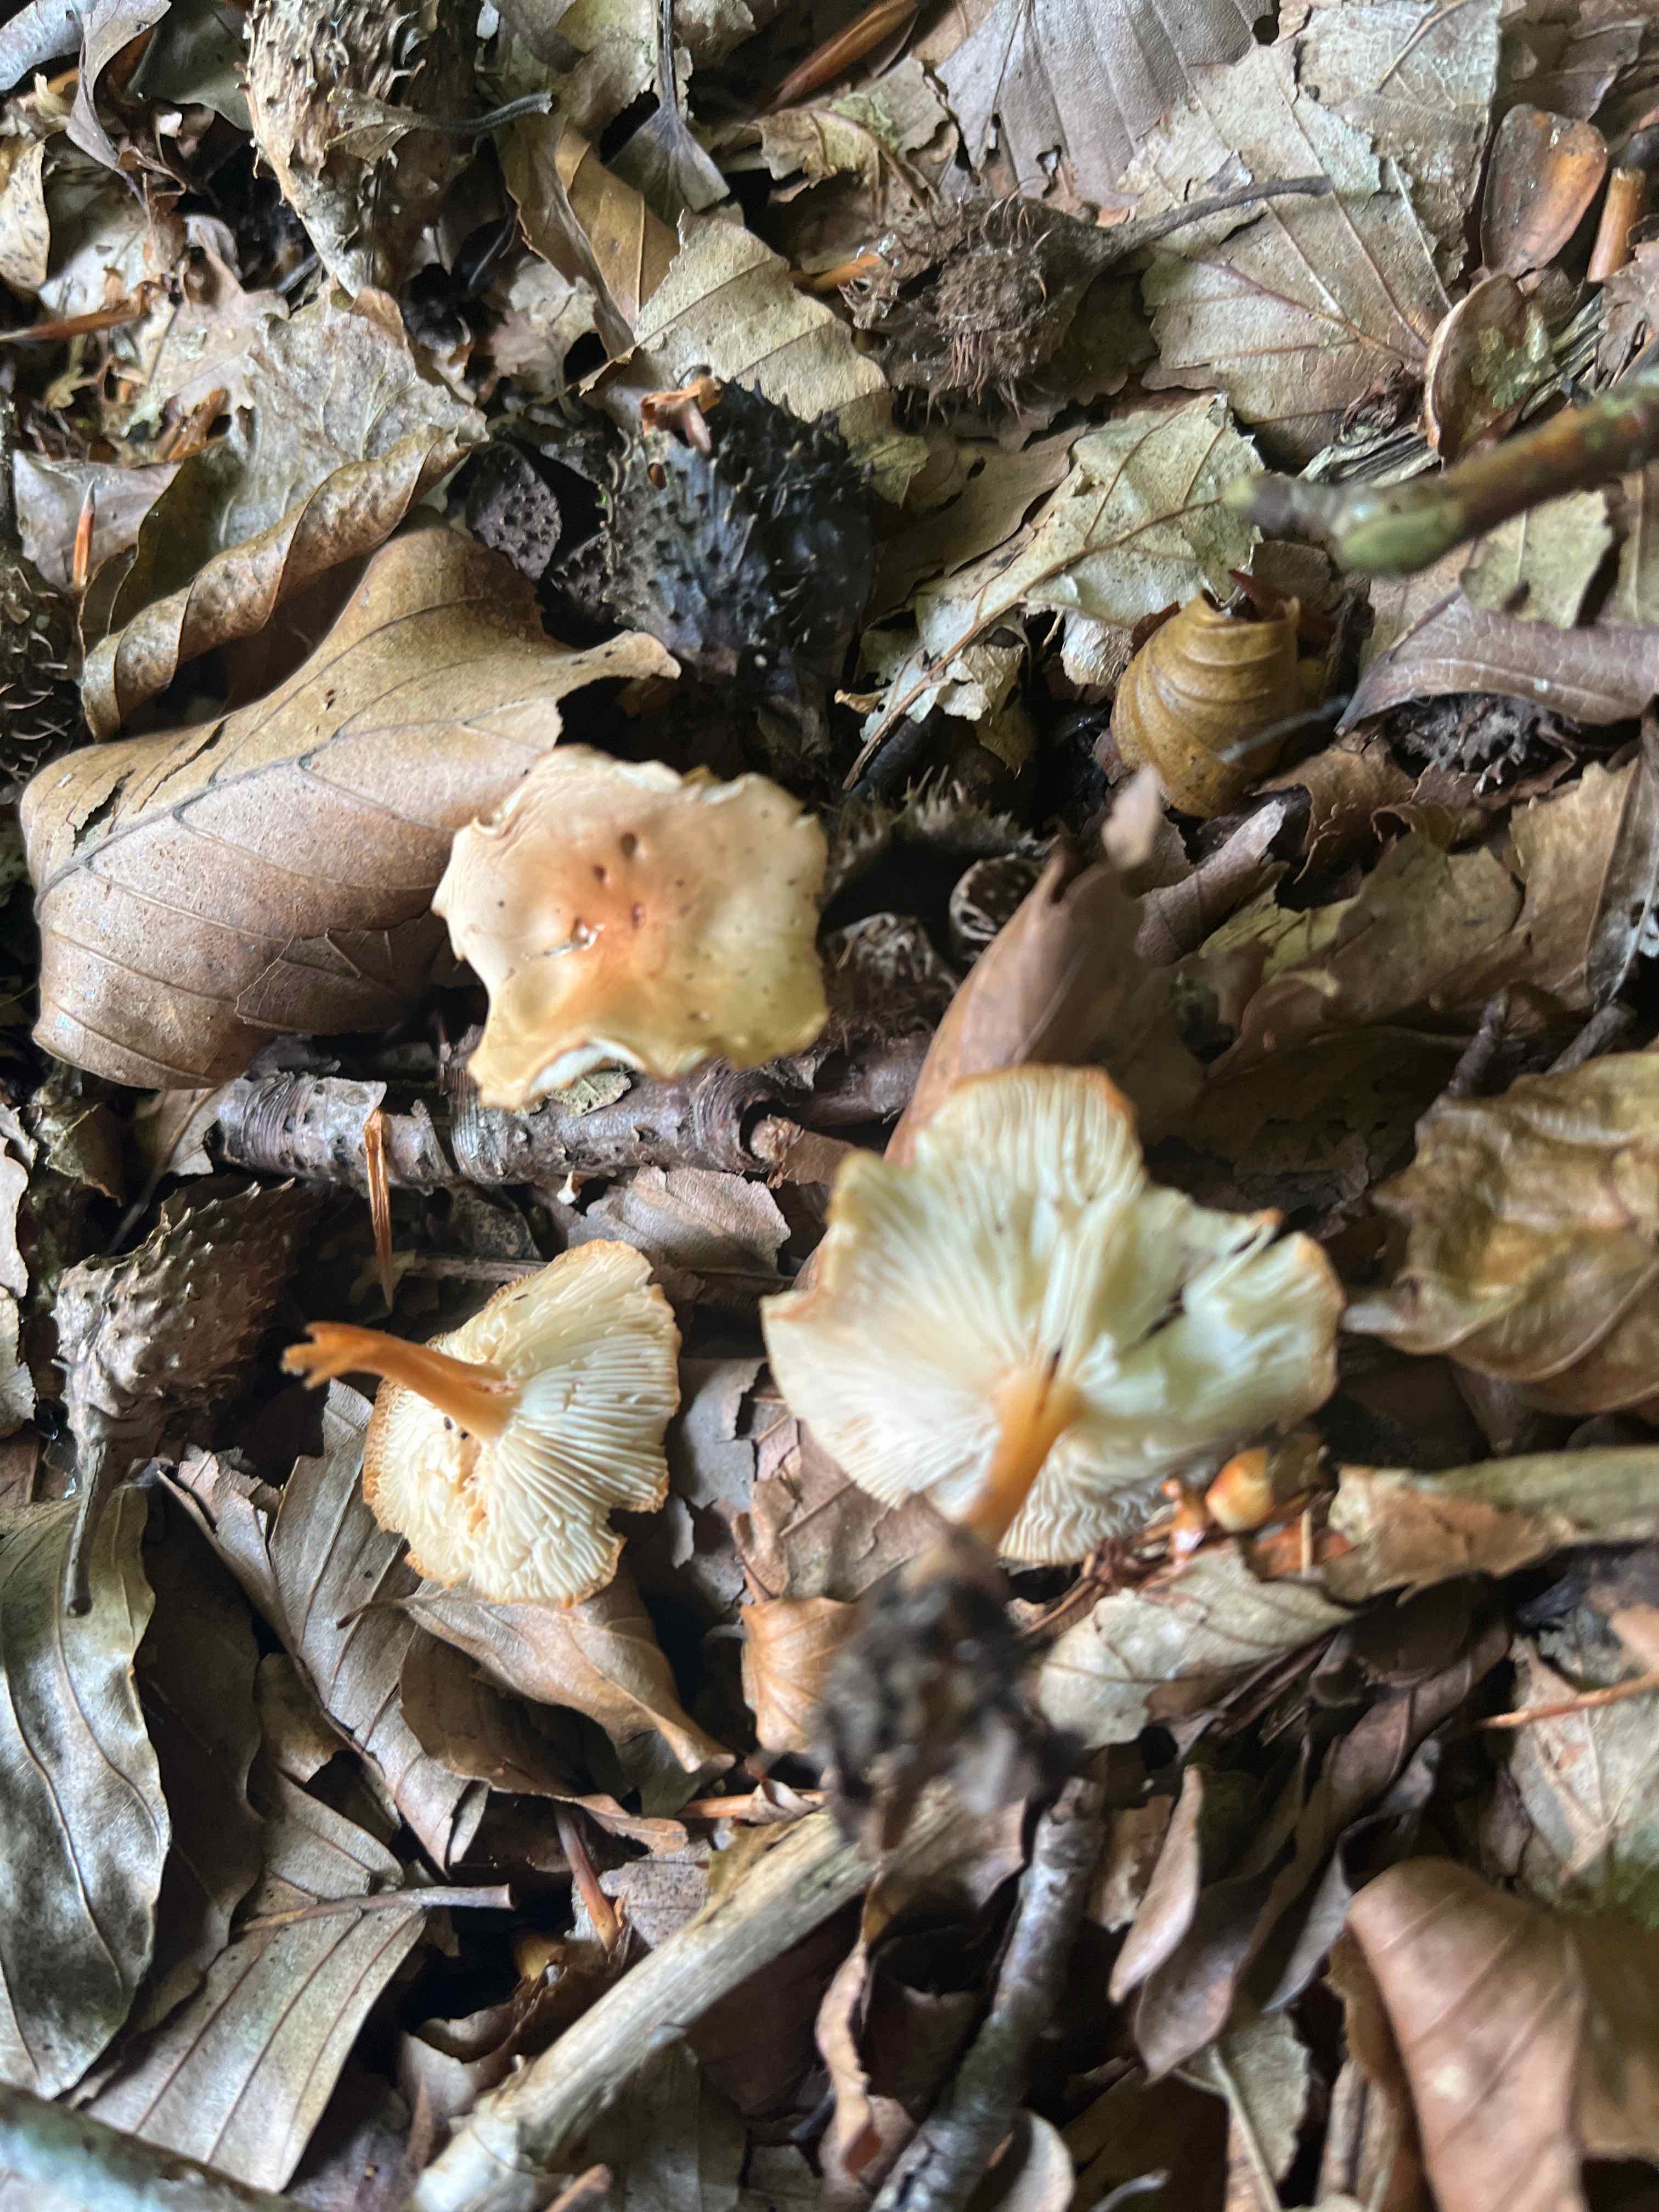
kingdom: Fungi
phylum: Basidiomycota
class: Agaricomycetes
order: Agaricales
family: Omphalotaceae
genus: Gymnopus
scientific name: Gymnopus dryophilus
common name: løv-fladhat
